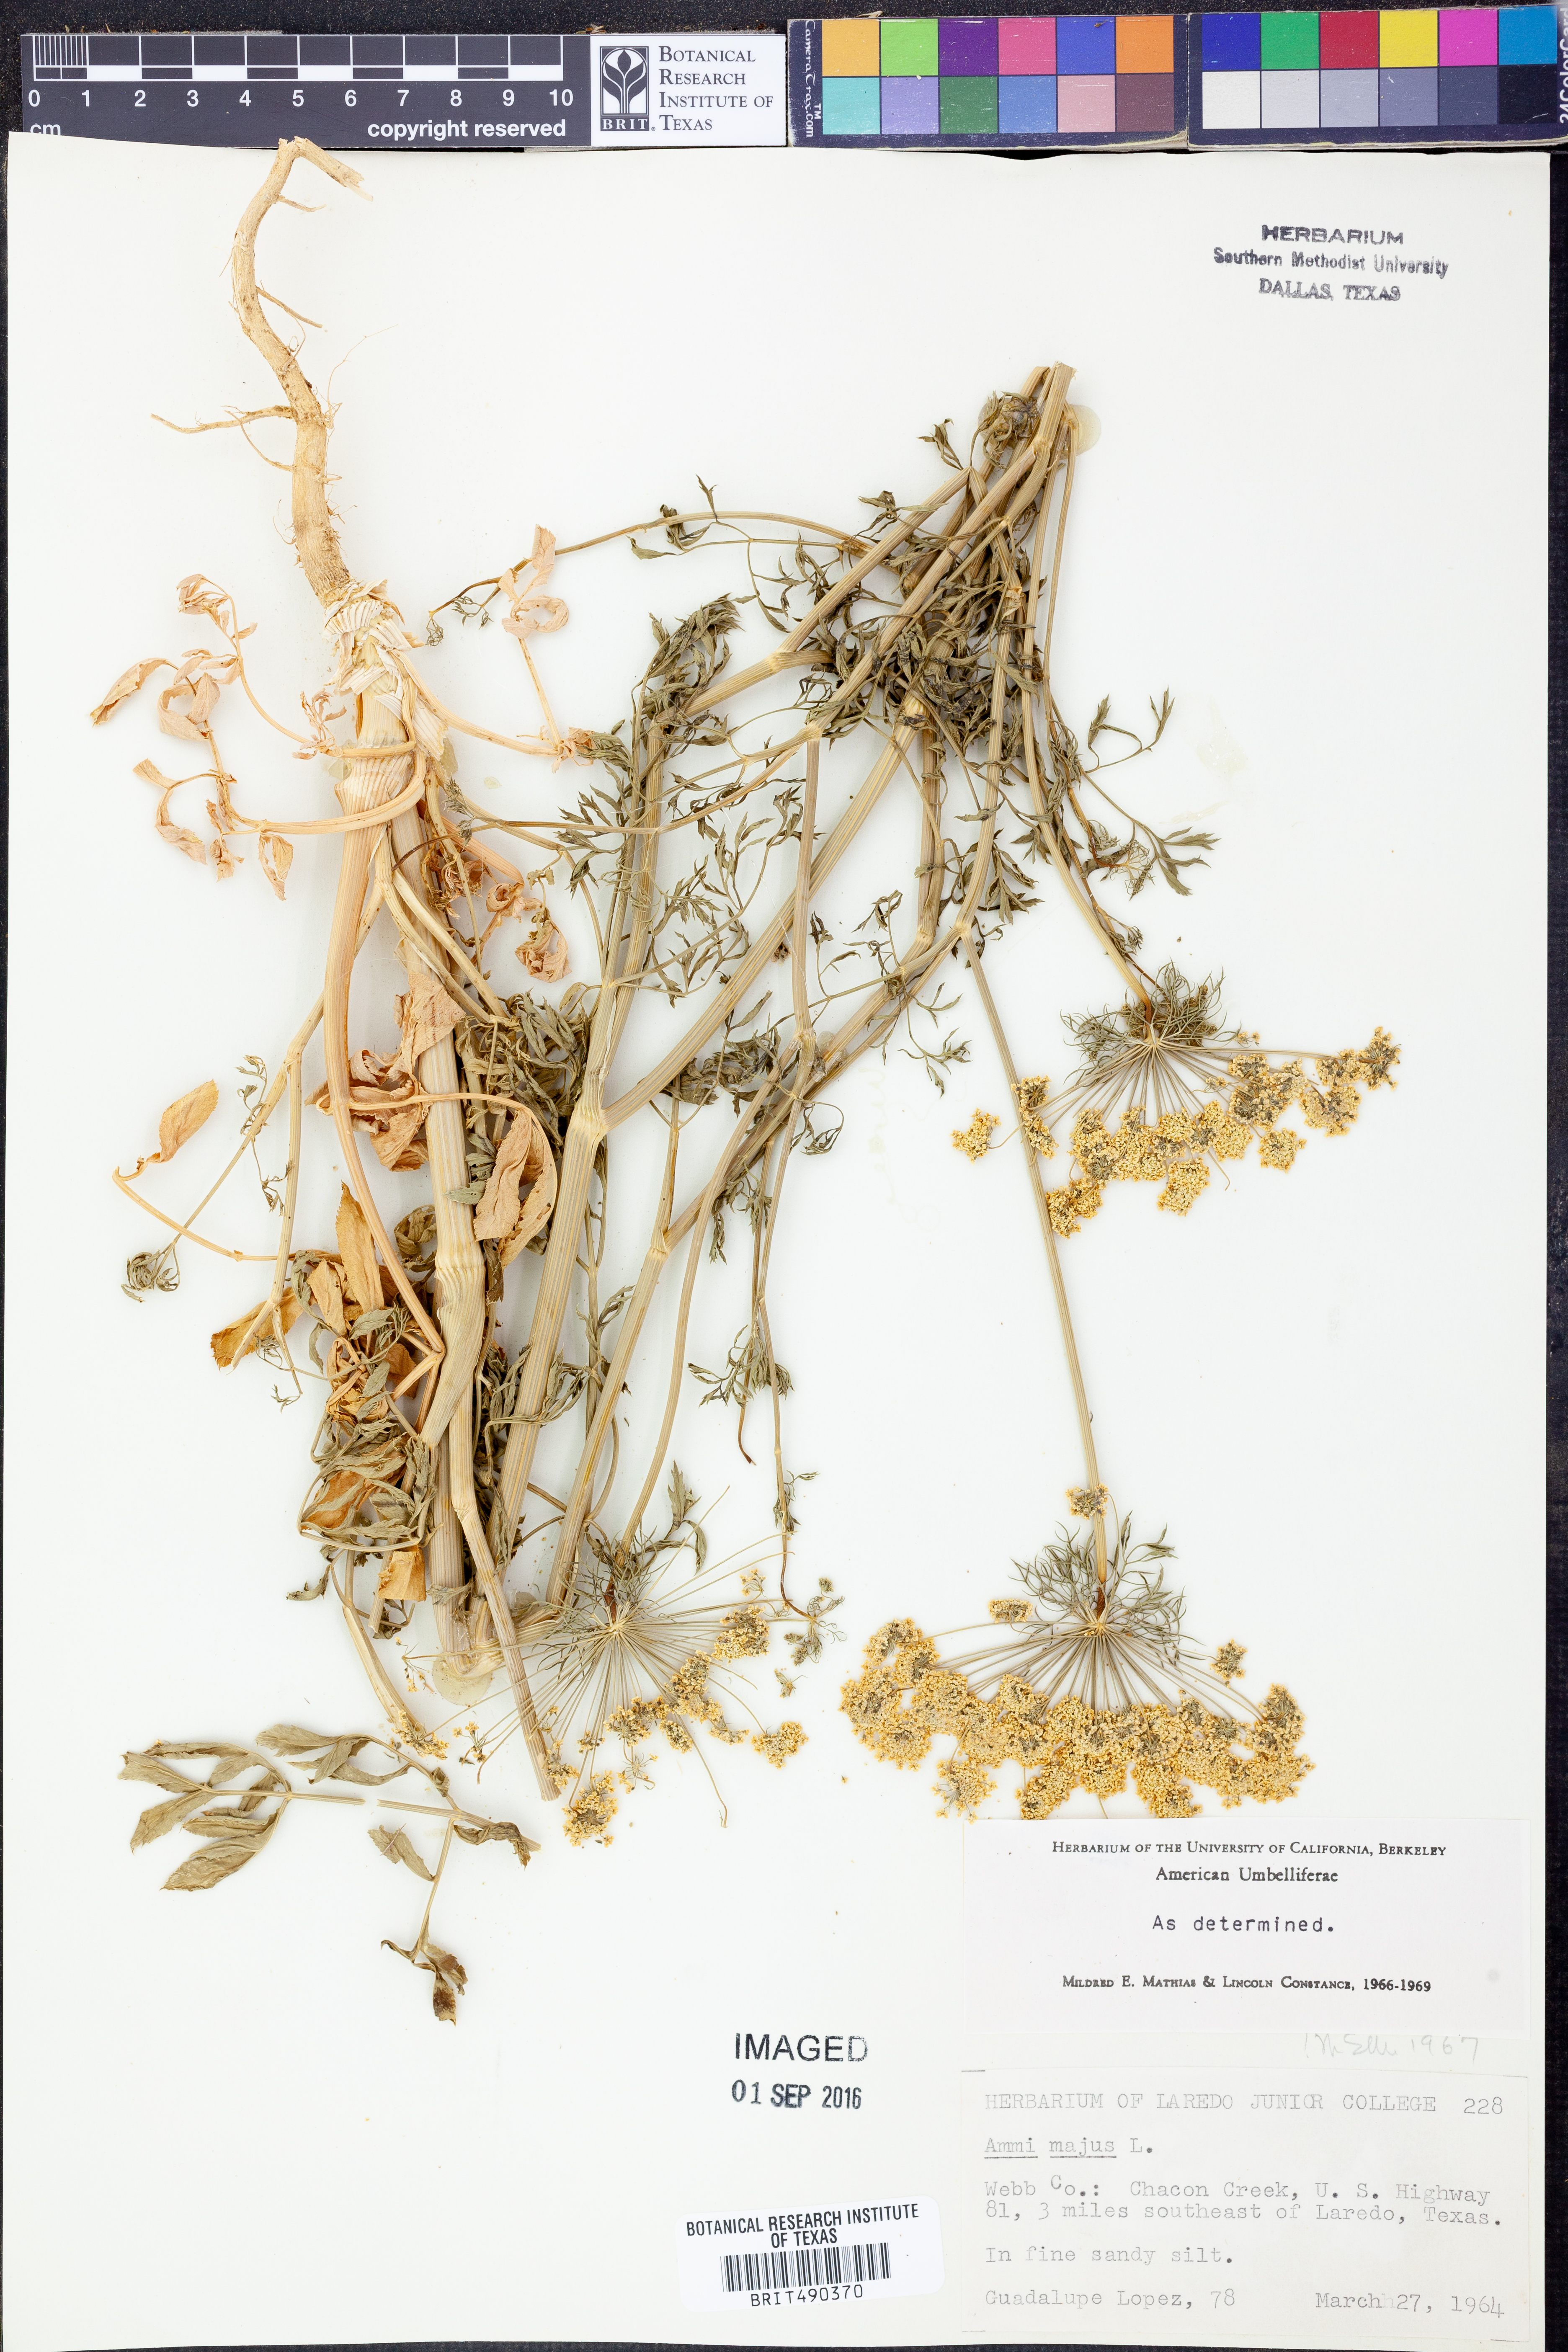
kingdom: Plantae
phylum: Tracheophyta
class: Magnoliopsida
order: Apiales
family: Apiaceae
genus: Ammi
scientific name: Ammi majus
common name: Bullwort
